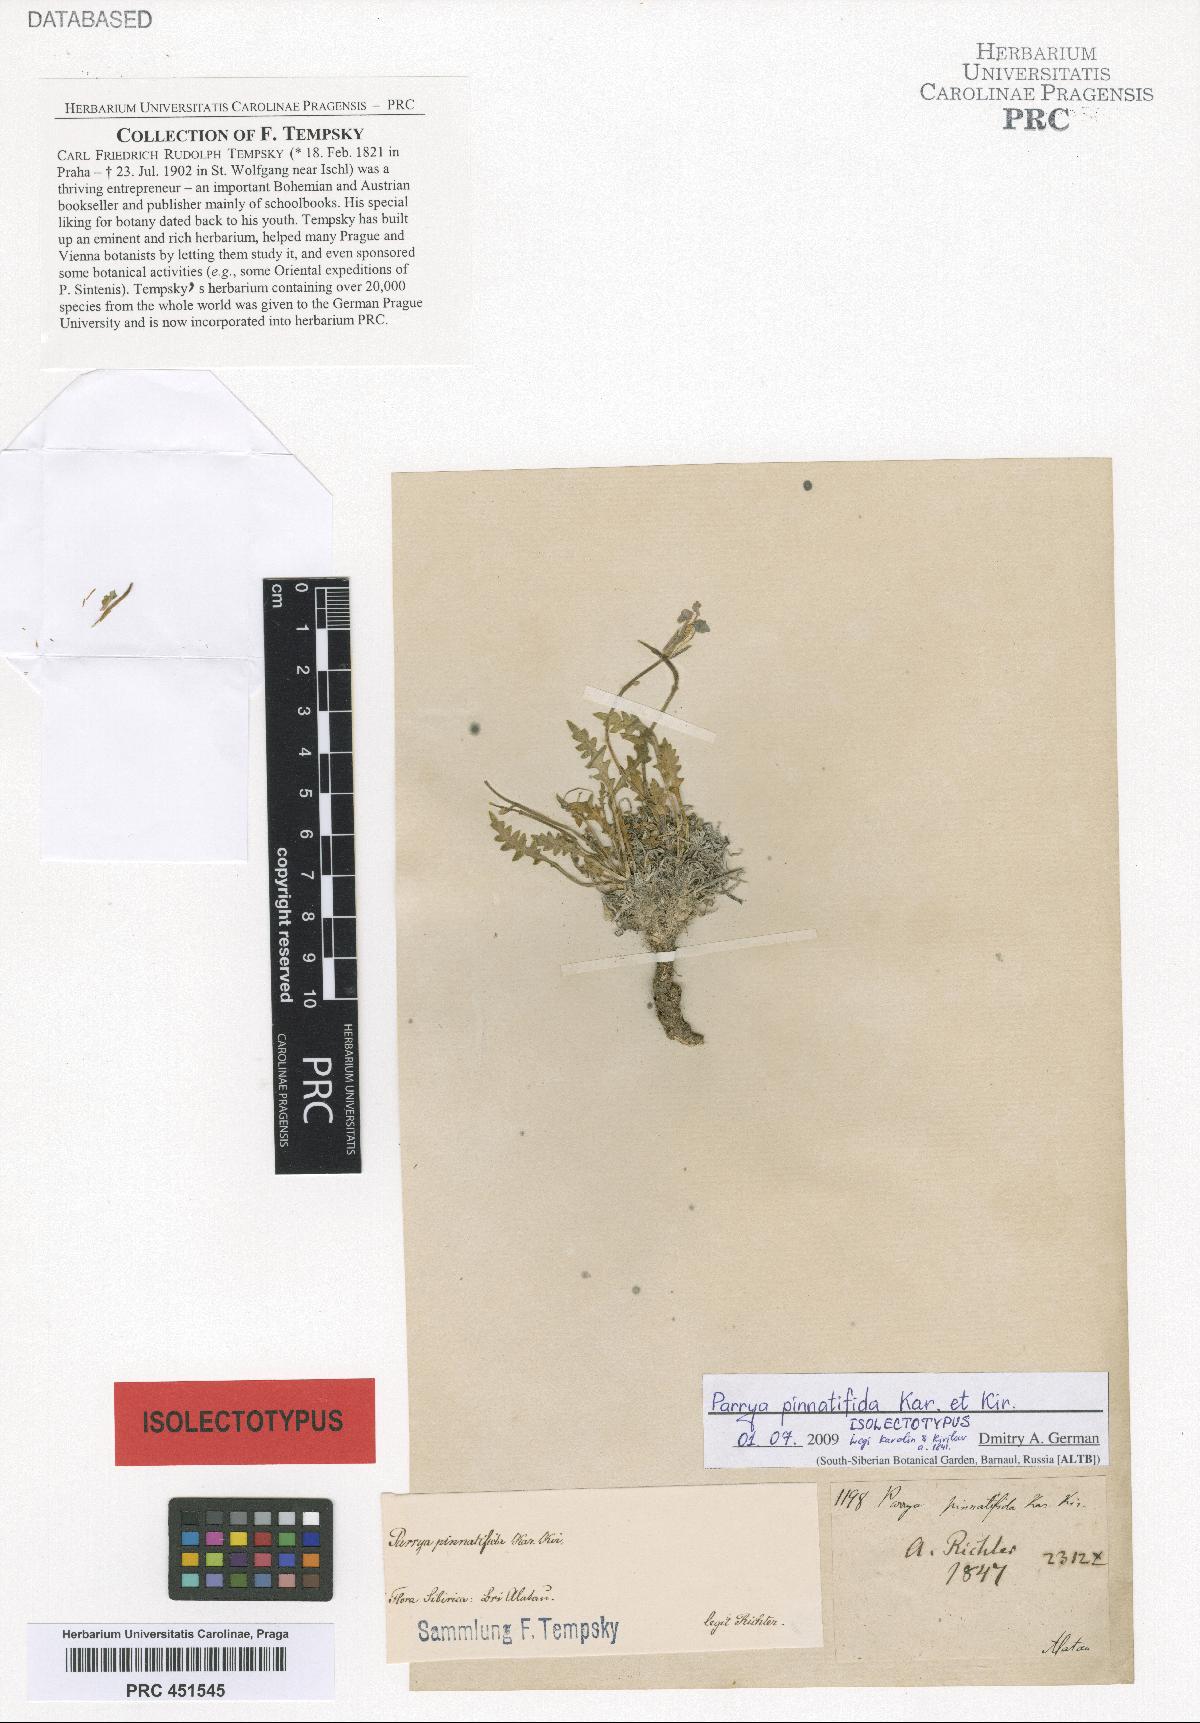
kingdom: Plantae
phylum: Tracheophyta
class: Magnoliopsida
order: Brassicales
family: Brassicaceae
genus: Parrya
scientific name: Parrya pinnatifida
